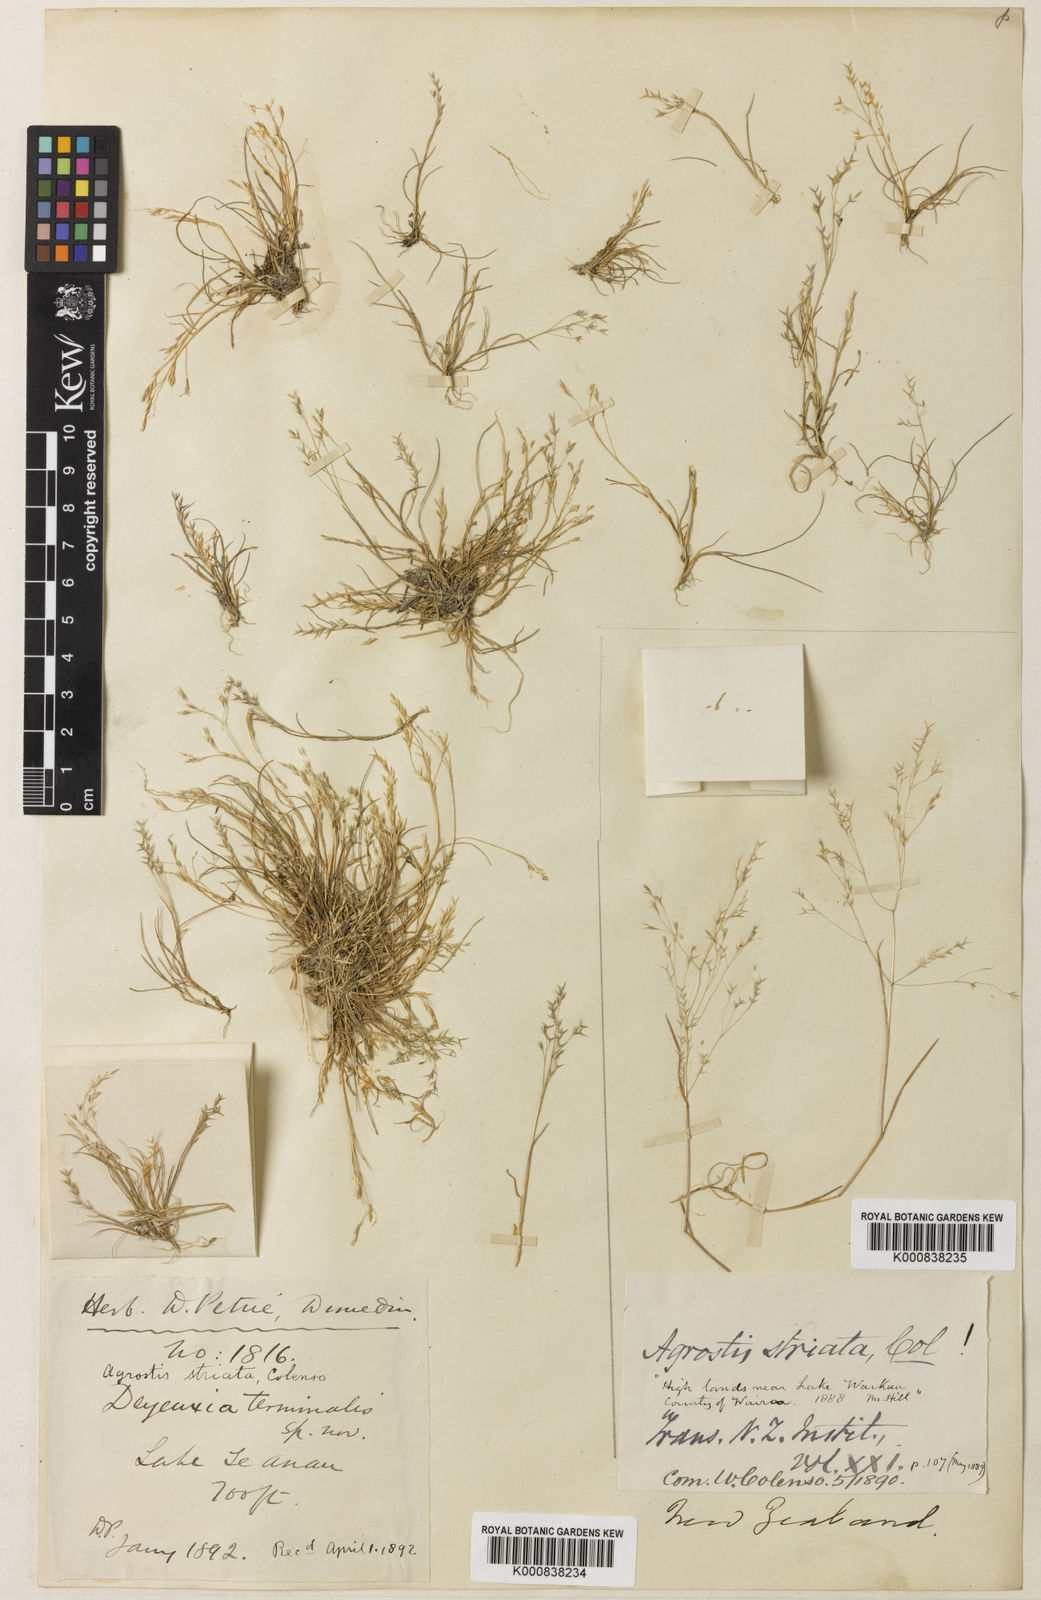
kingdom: Plantae
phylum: Tracheophyta
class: Liliopsida
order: Poales
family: Poaceae
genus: Lachnagrostis
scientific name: Lachnagrostis striata
